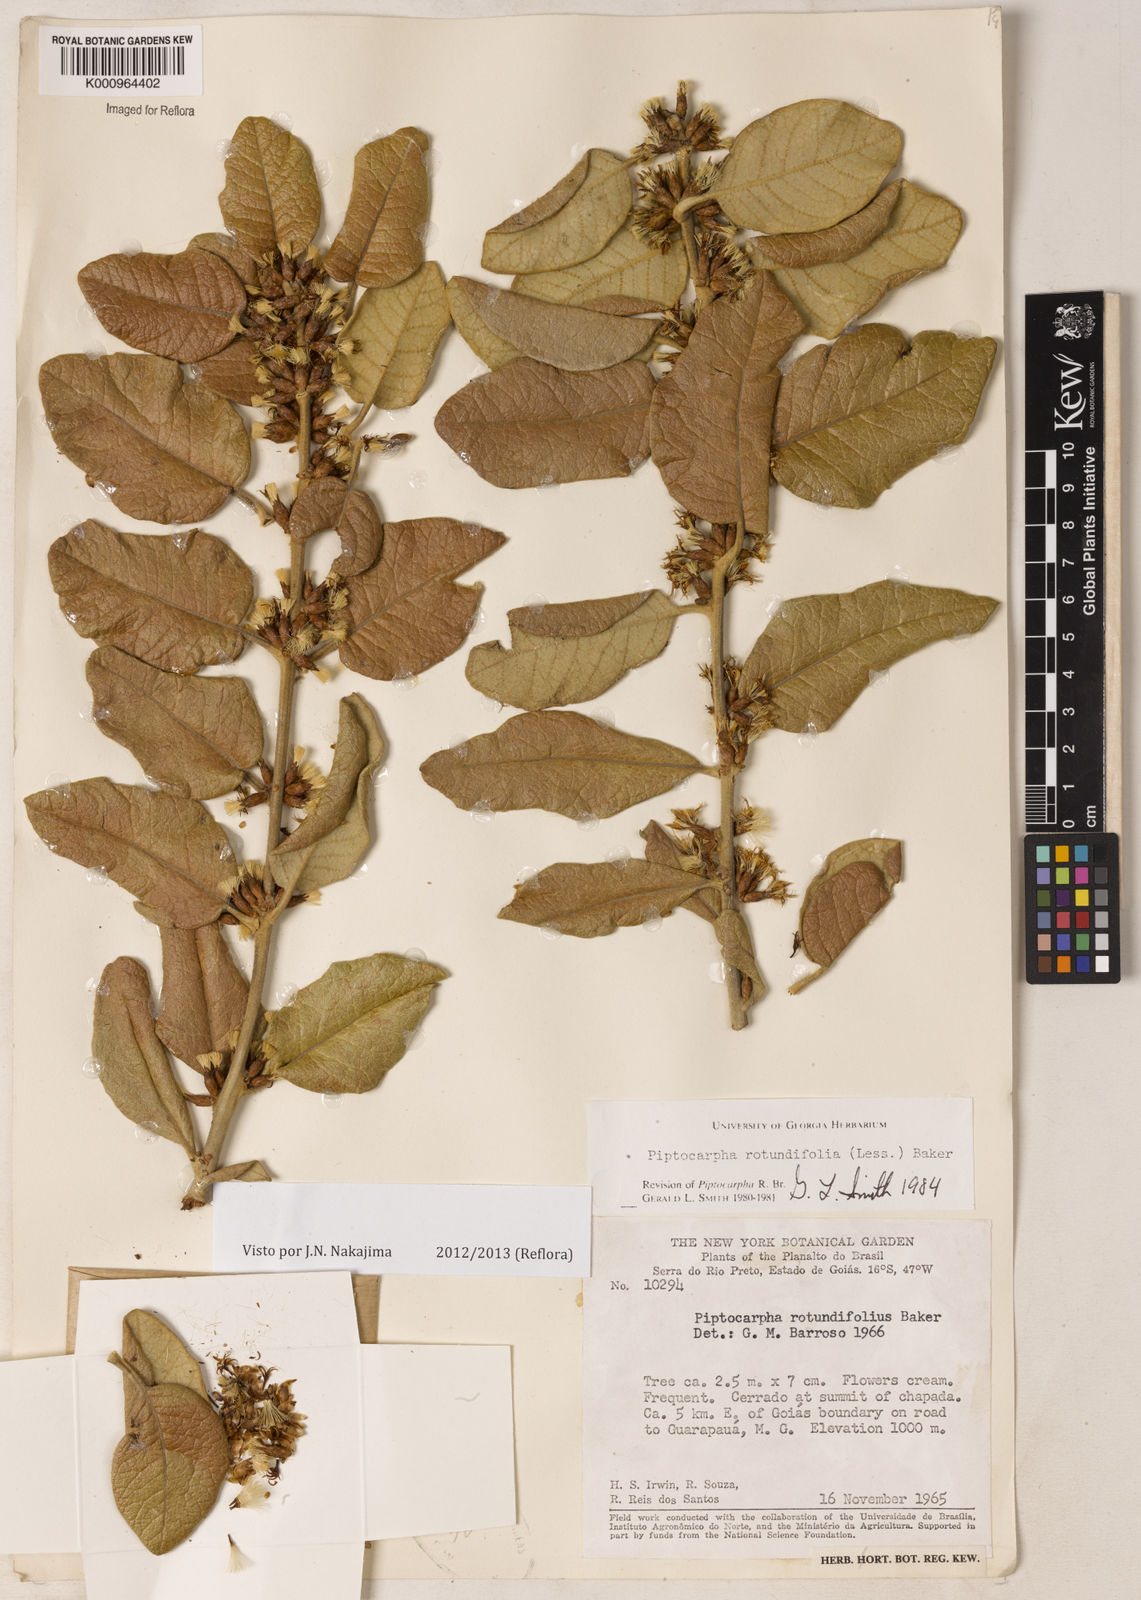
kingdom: Plantae
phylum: Tracheophyta
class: Magnoliopsida
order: Asterales
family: Asteraceae
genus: Piptocarpha
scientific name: Piptocarpha rotundifolia
